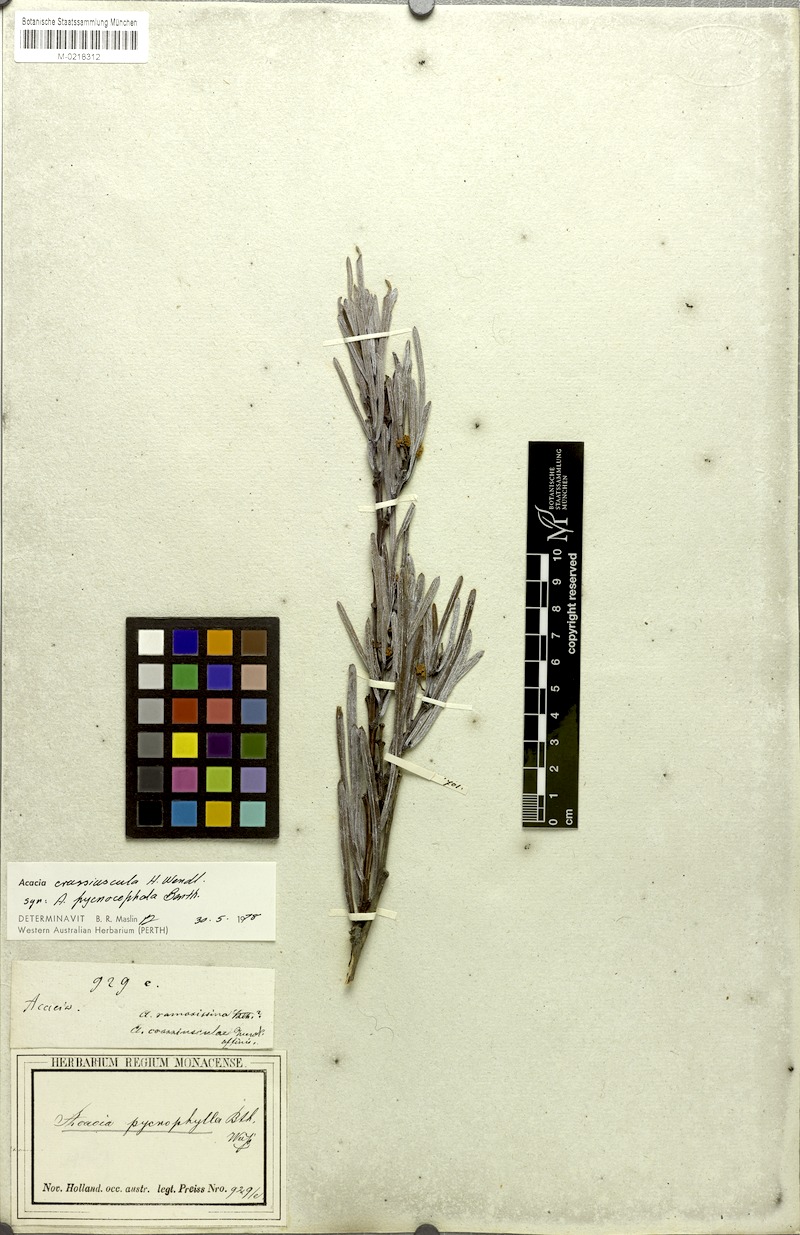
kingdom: Plantae
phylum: Tracheophyta
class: Magnoliopsida
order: Fabales
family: Fabaceae
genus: Acacia
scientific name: Acacia crassiuscula
